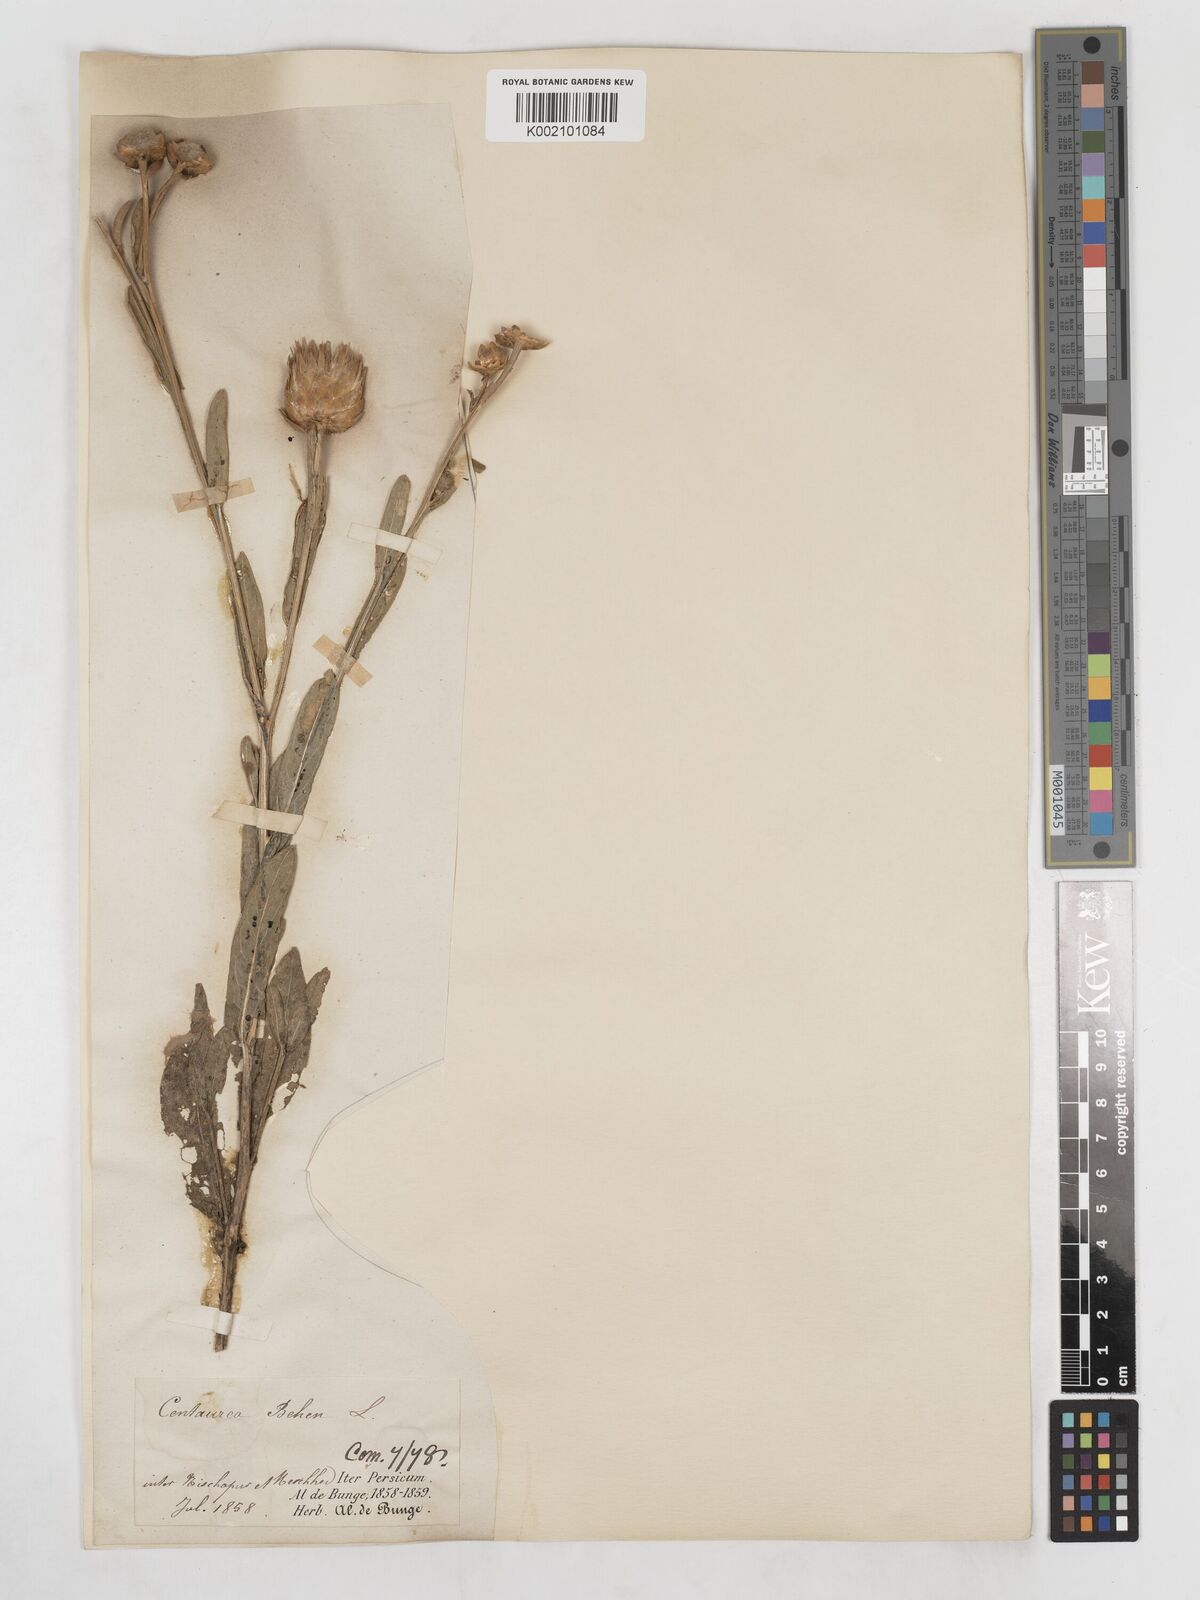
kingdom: Plantae
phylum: Tracheophyta
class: Magnoliopsida
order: Asterales
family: Asteraceae
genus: Centaurea
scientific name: Centaurea behen
